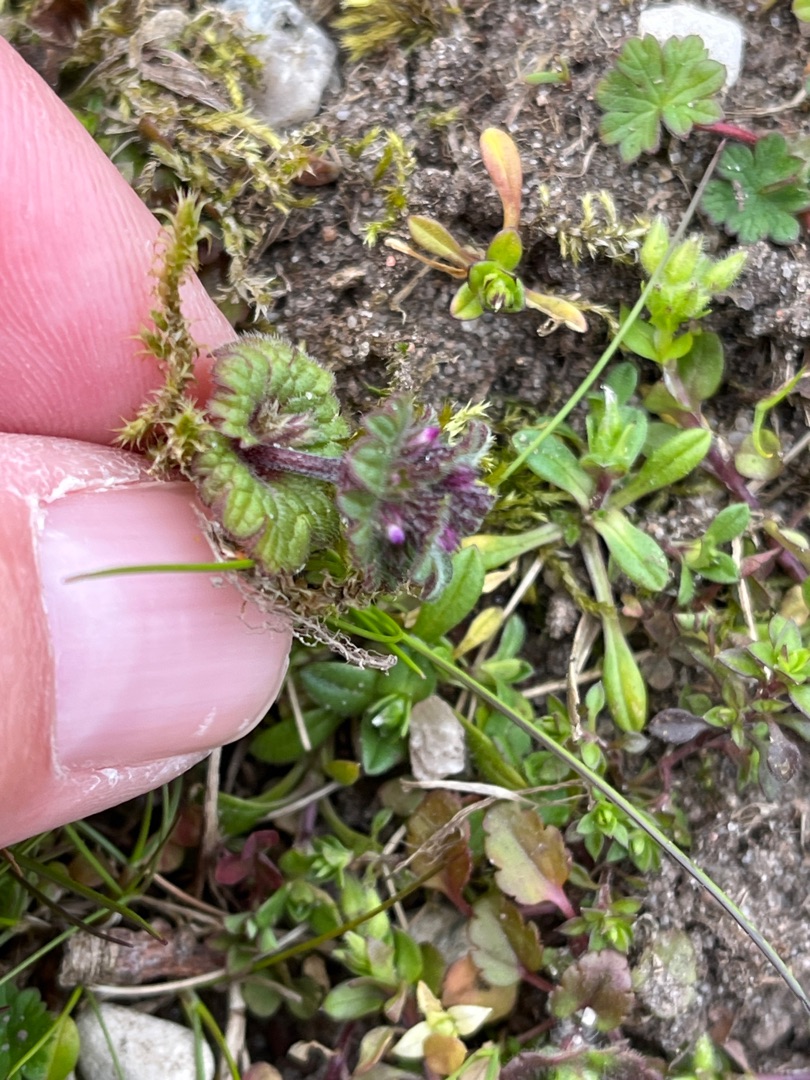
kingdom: Plantae
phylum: Tracheophyta
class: Magnoliopsida
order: Lamiales
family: Lamiaceae
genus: Lamium
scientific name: Lamium amplexicaule
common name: Liden tvetand
